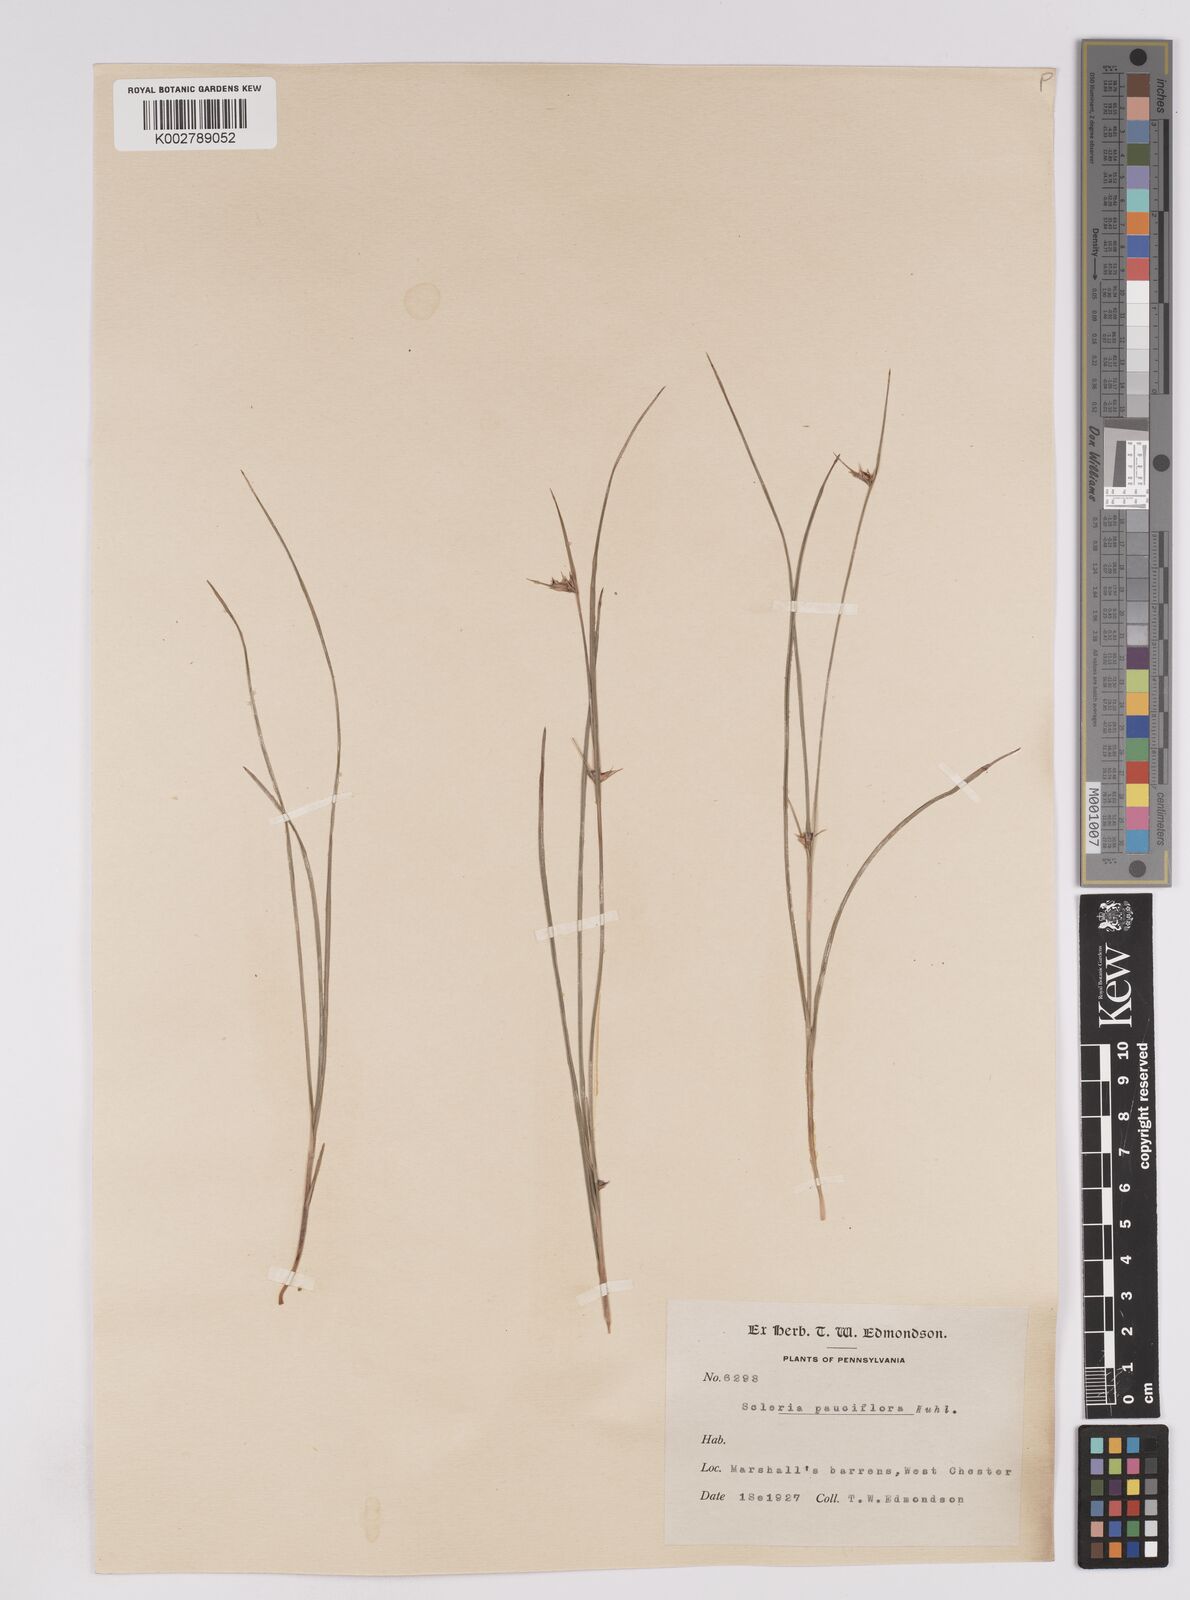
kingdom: Plantae
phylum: Tracheophyta
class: Liliopsida
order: Poales
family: Cyperaceae
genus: Scleria
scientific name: Scleria pauciflora
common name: Few-flowered nutrush
